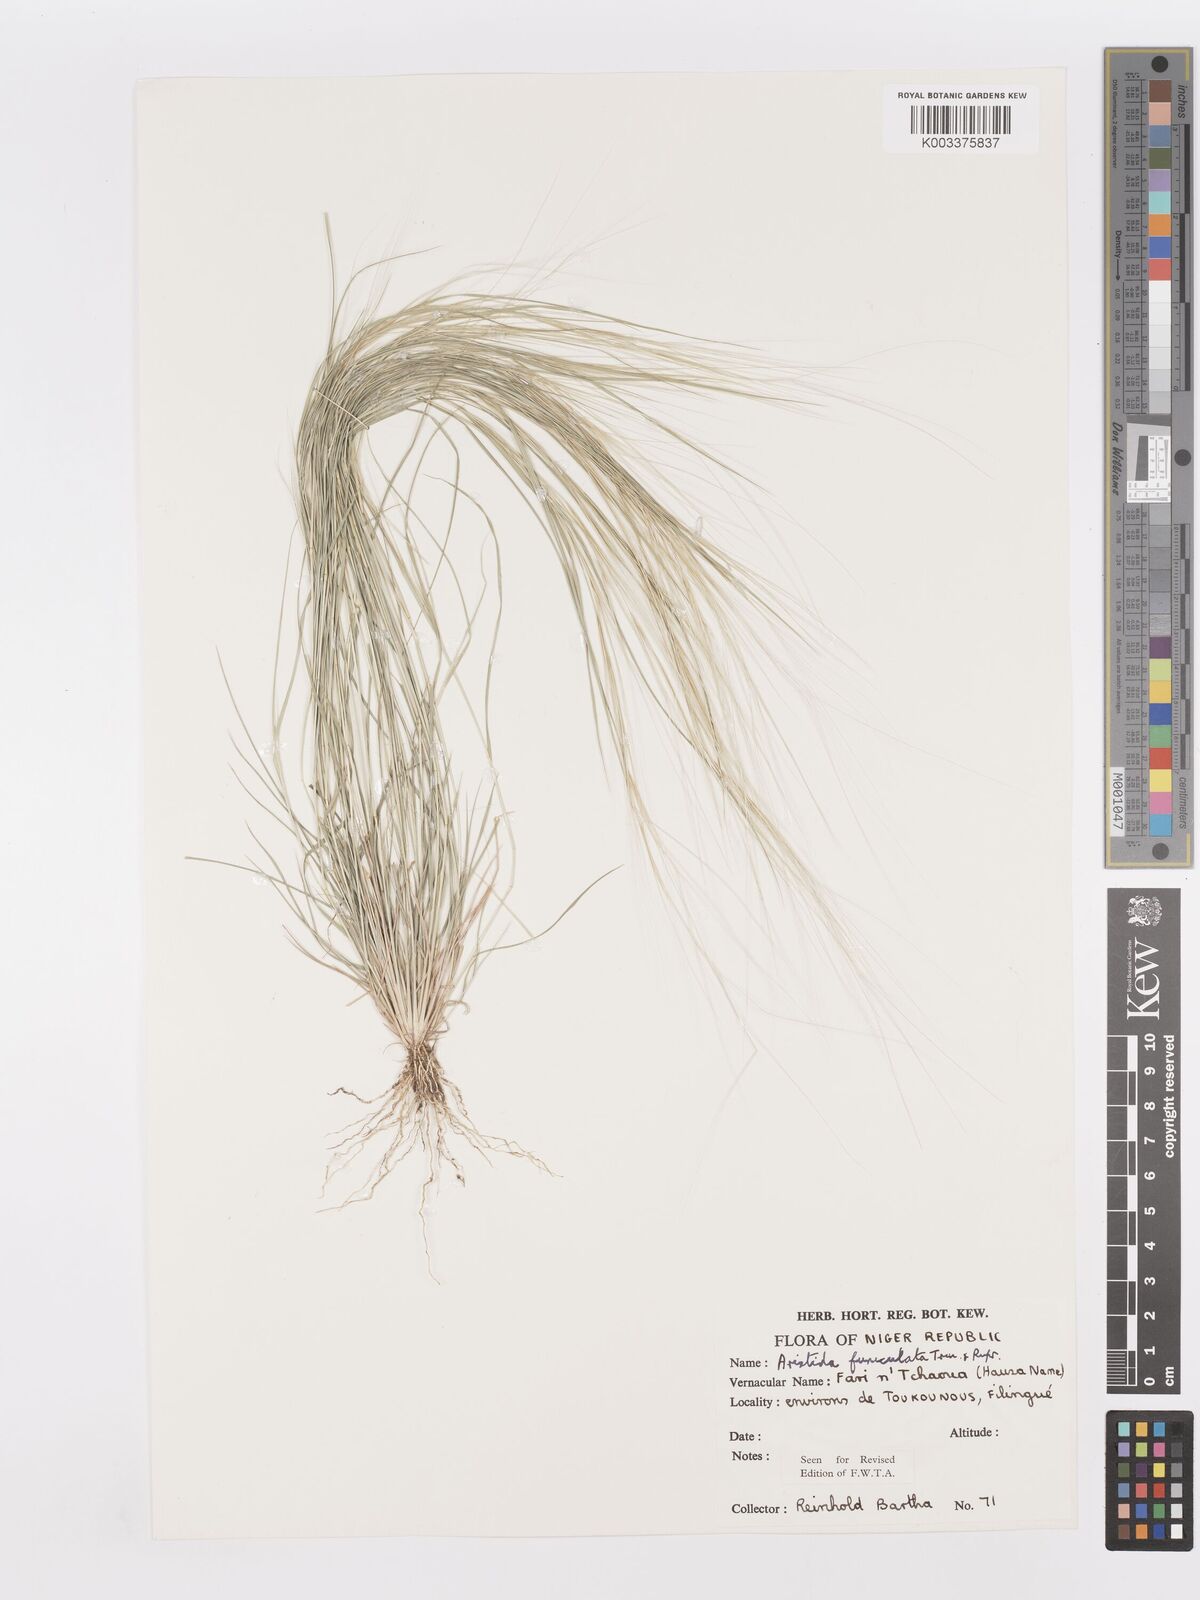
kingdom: Plantae
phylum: Tracheophyta
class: Liliopsida
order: Poales
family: Poaceae
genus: Aristida
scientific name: Aristida funiculata
